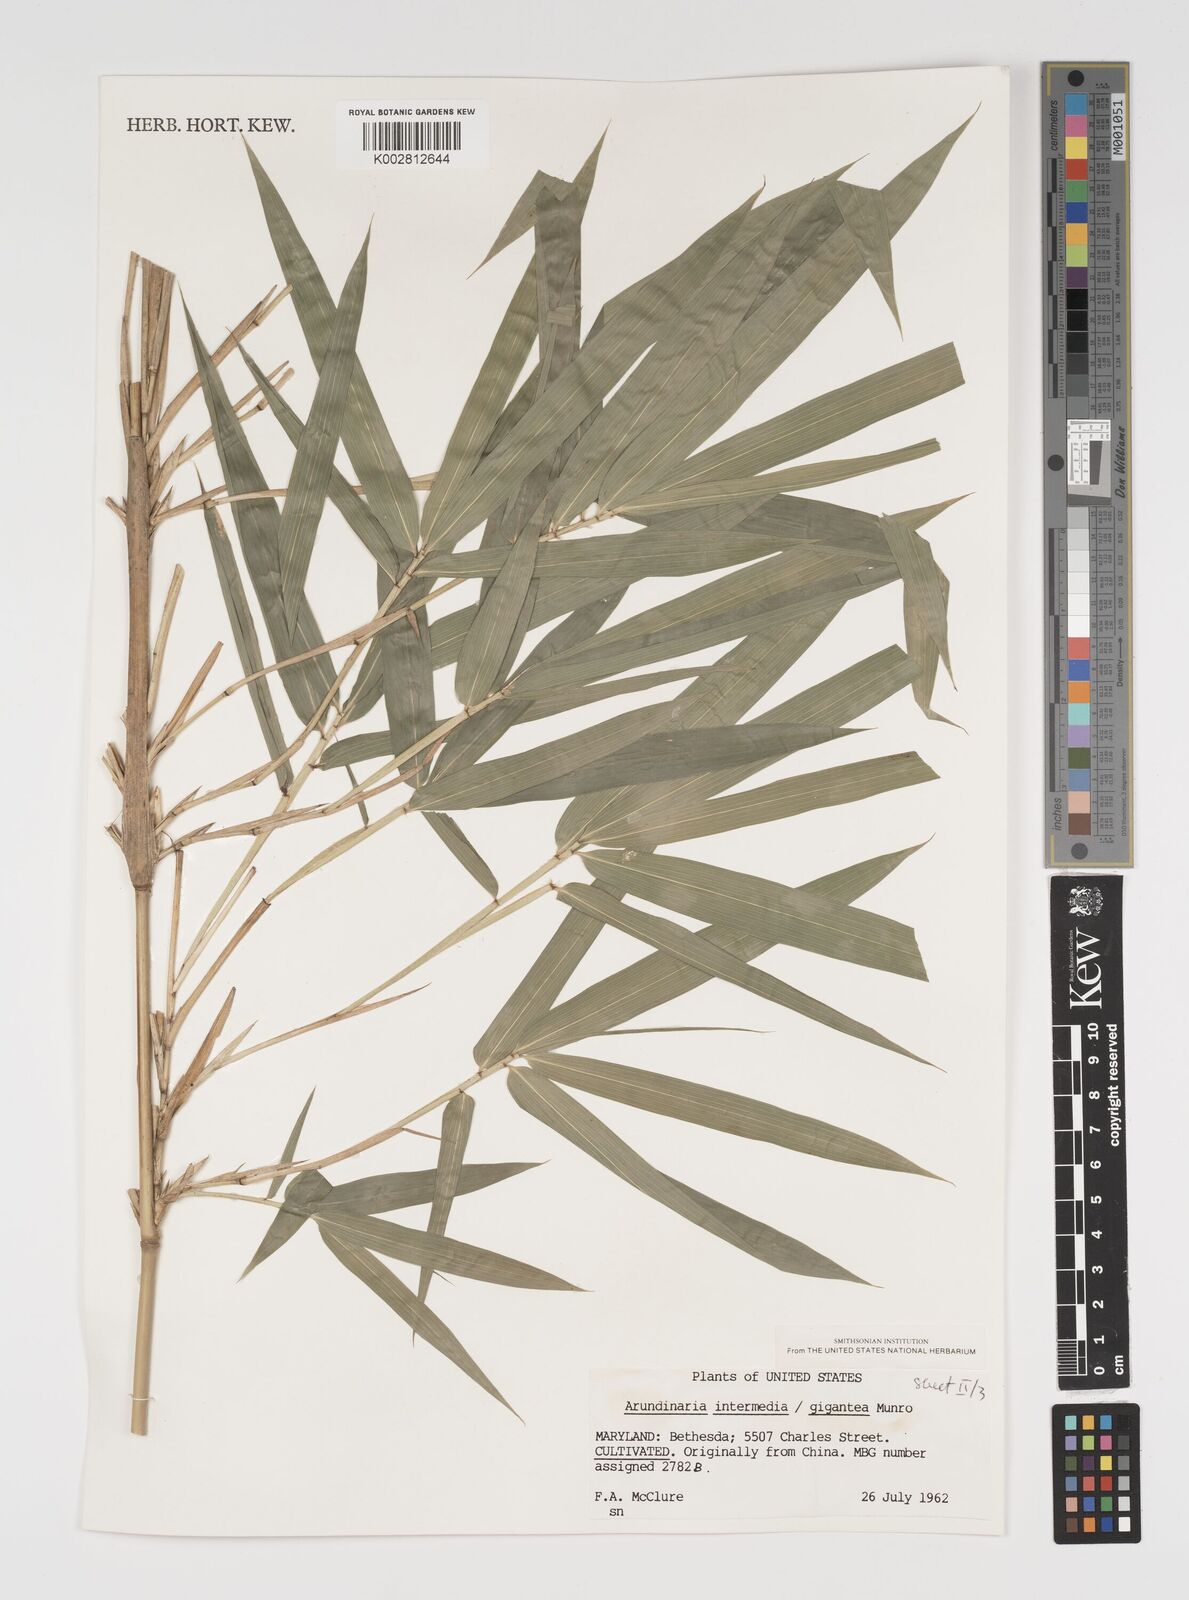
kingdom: Plantae
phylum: Tracheophyta
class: Liliopsida
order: Poales
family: Poaceae
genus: Arundinaria
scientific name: Arundinaria
